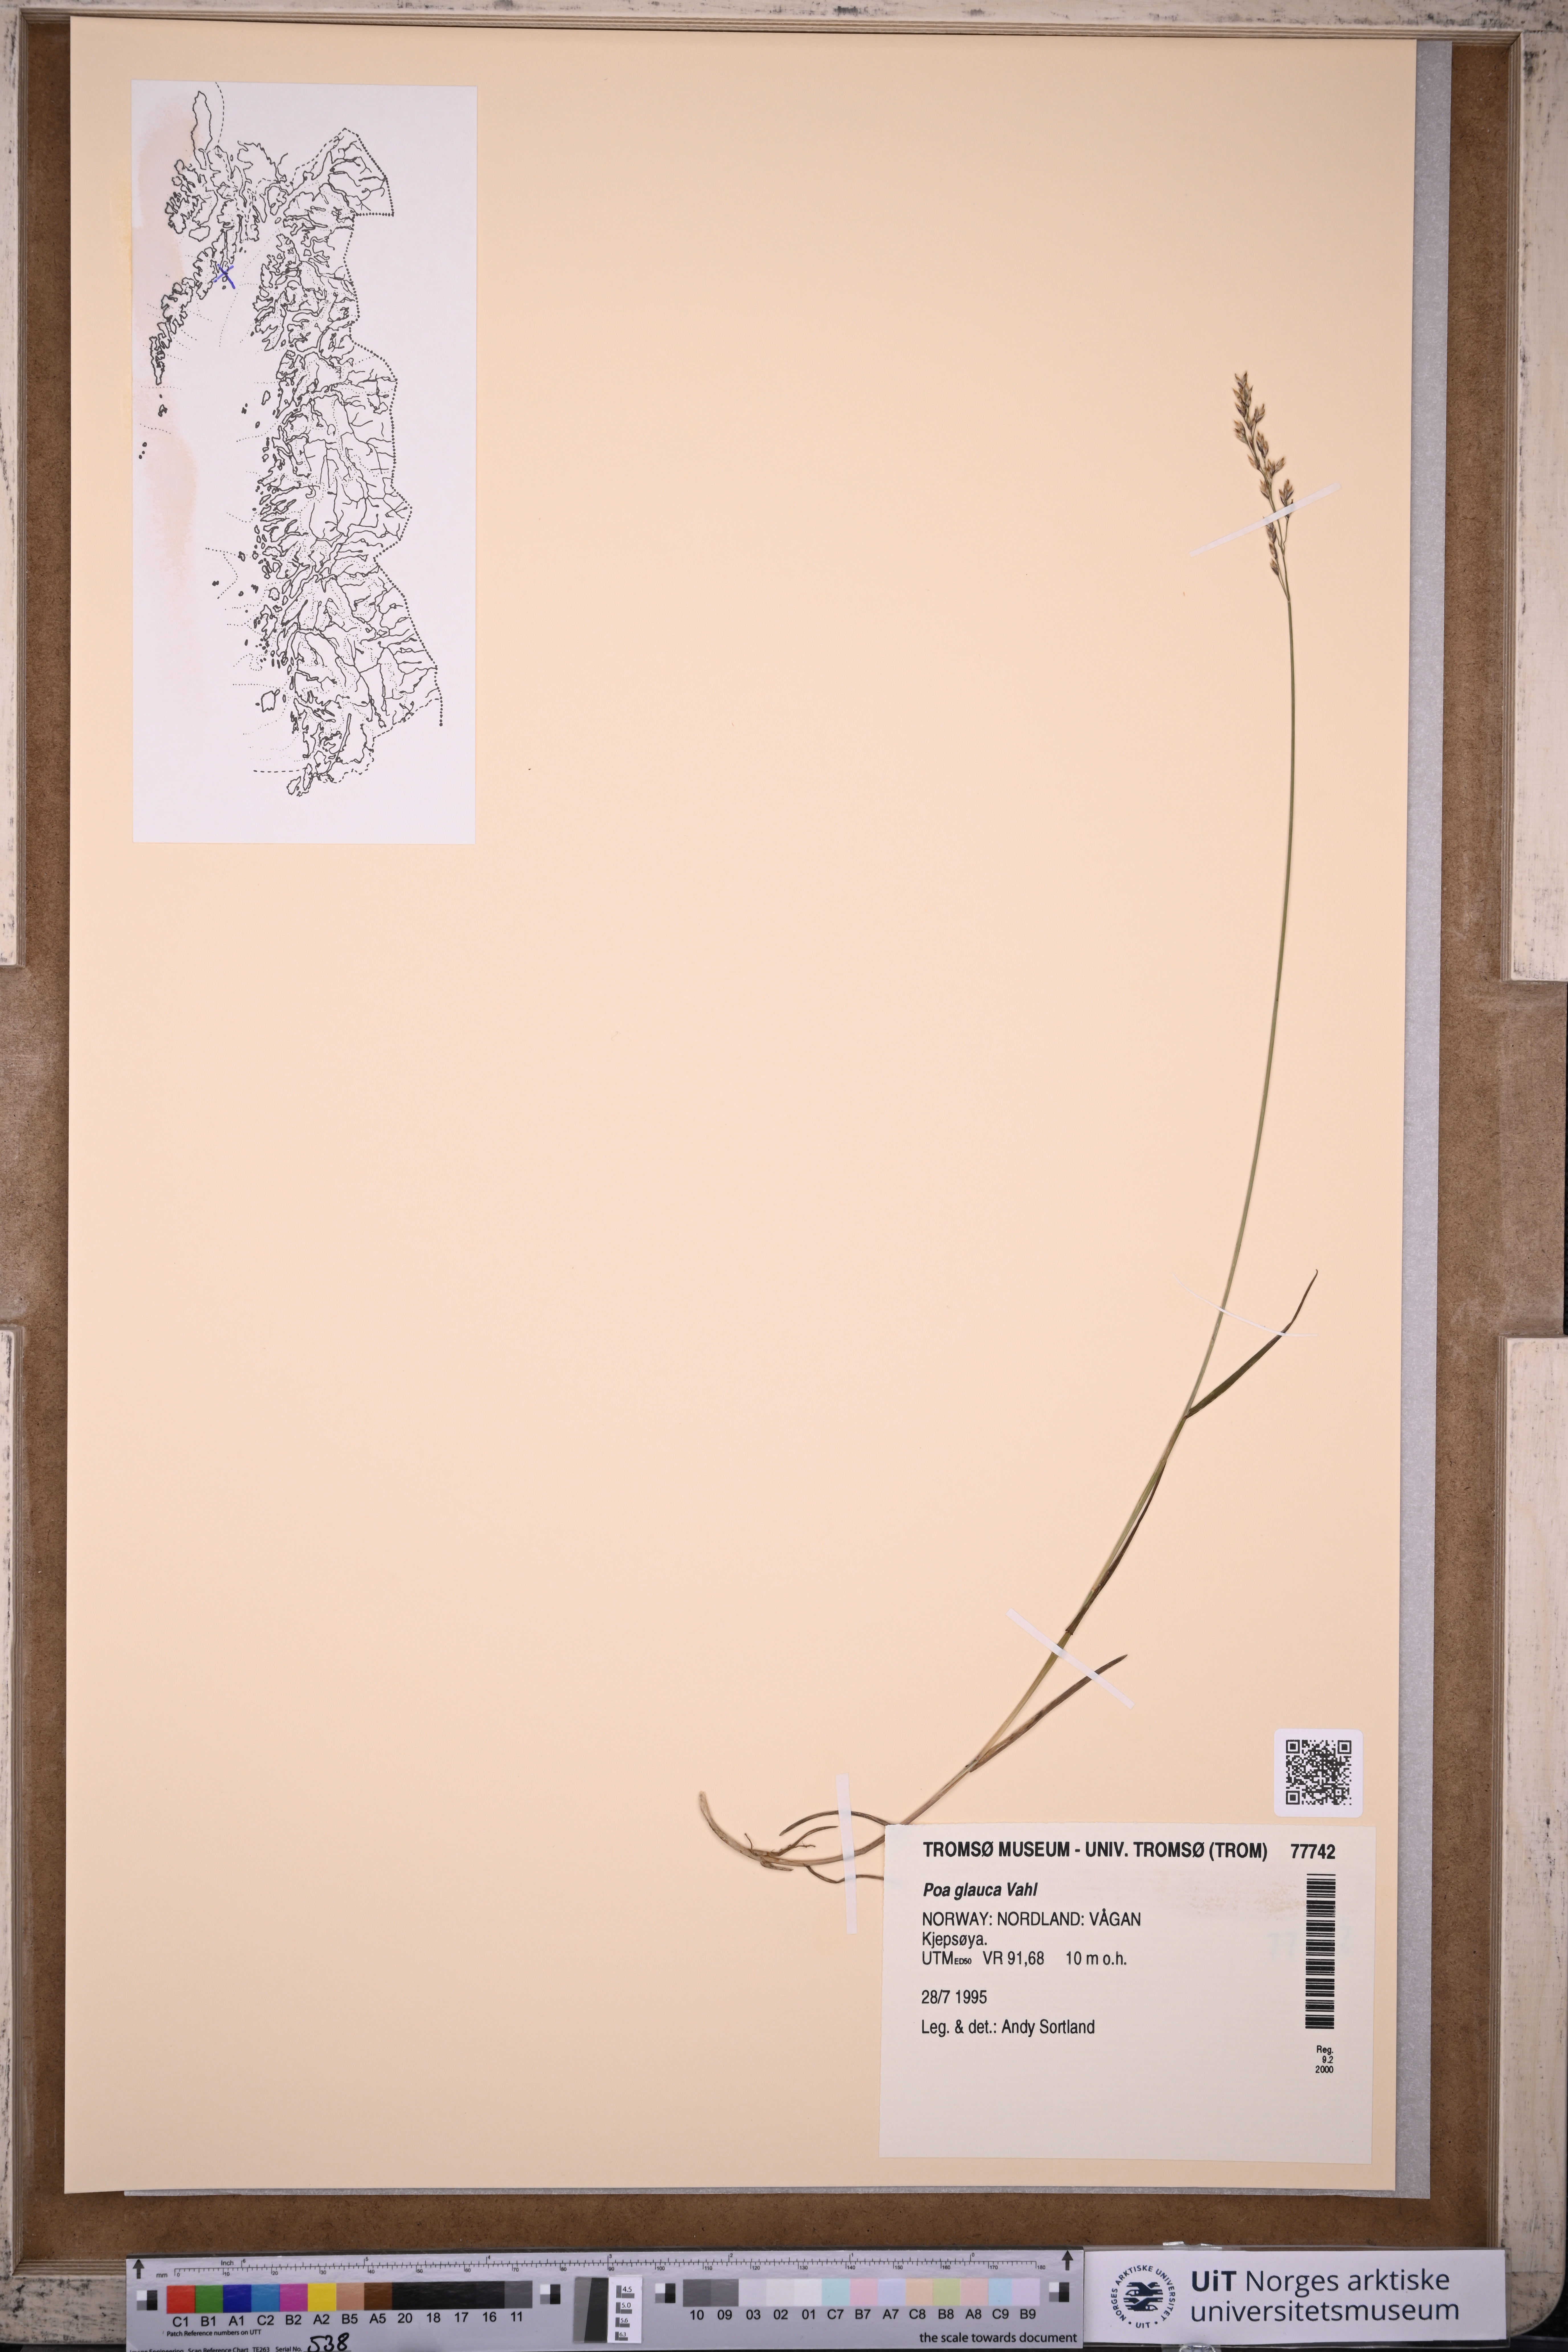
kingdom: Plantae
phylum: Tracheophyta
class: Liliopsida
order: Poales
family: Poaceae
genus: Poa
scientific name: Poa glauca
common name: Glaucous bluegrass
